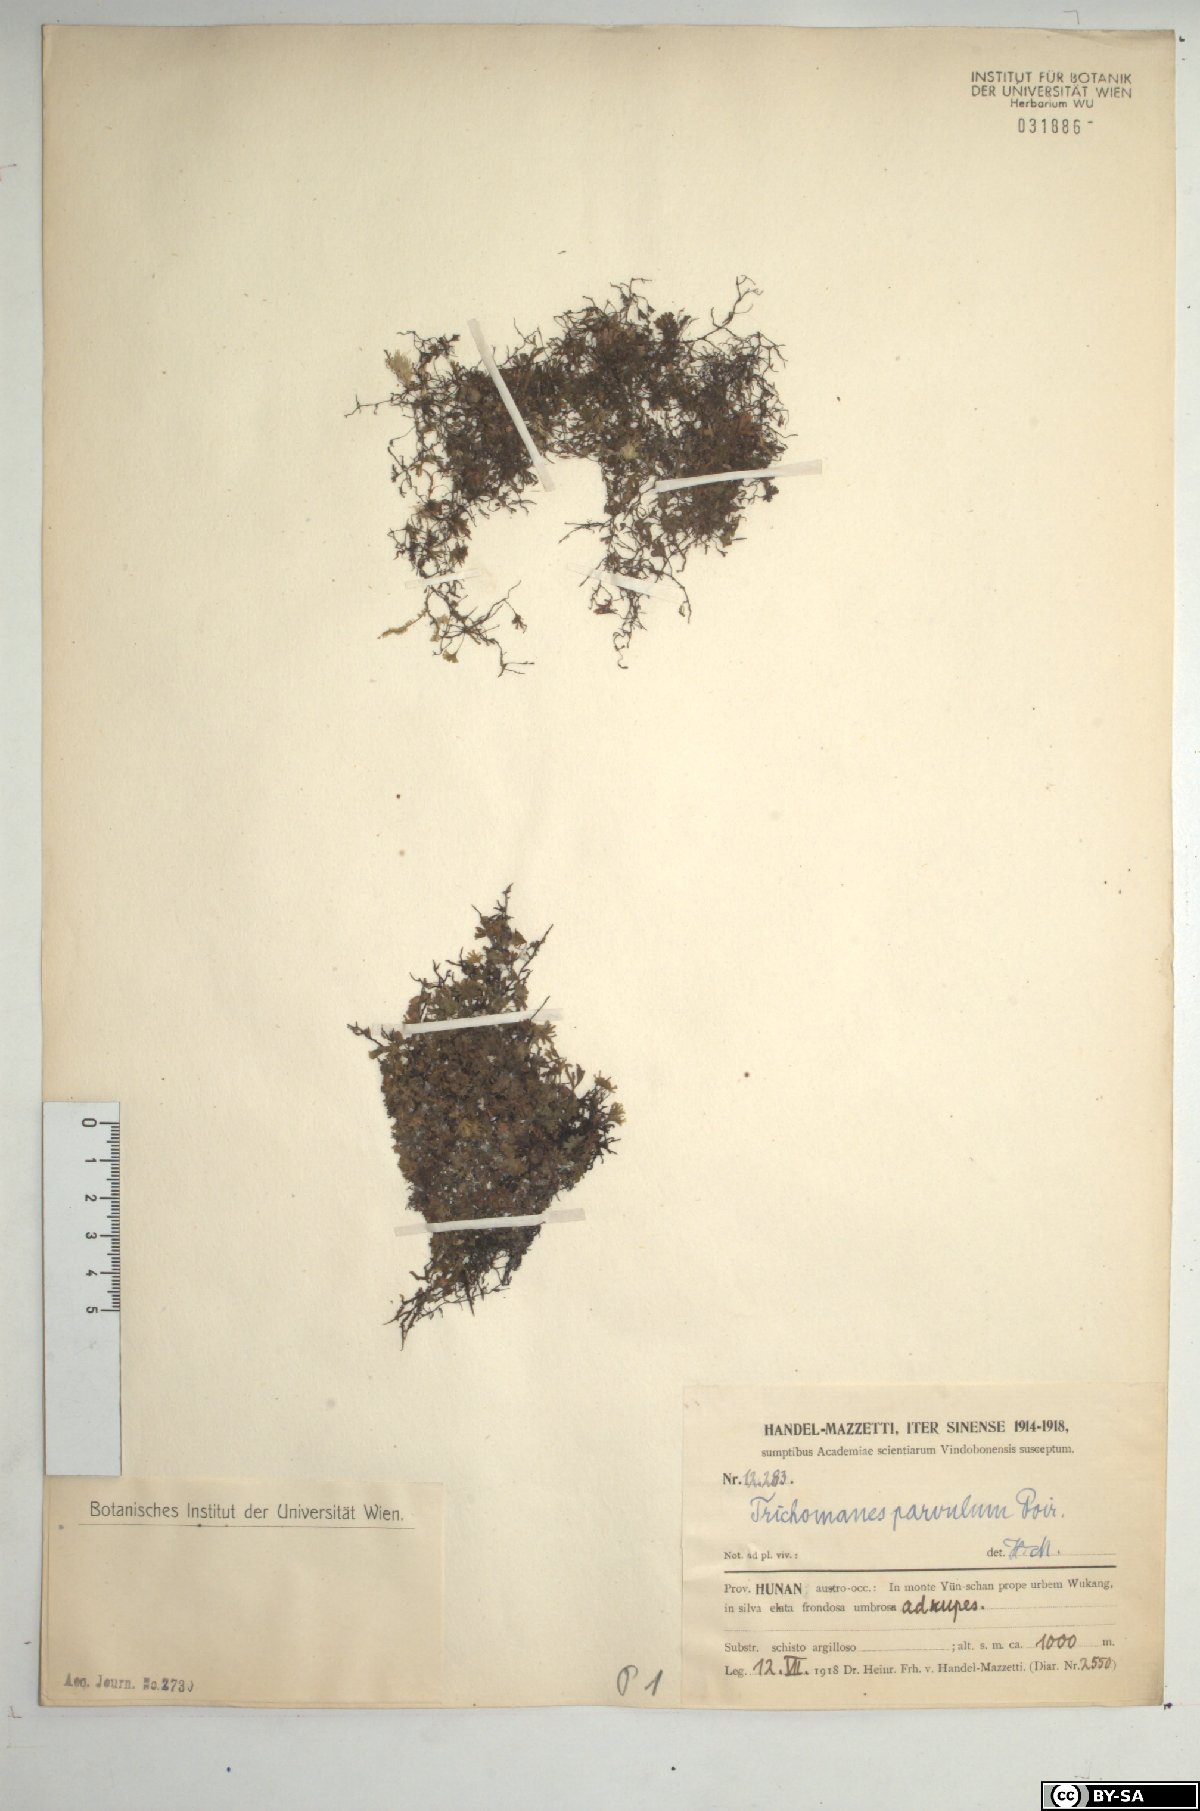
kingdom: Plantae
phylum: Tracheophyta
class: Polypodiopsida
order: Hymenophyllales
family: Hymenophyllaceae
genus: Crepidomanes
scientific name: Crepidomanes parvulum
